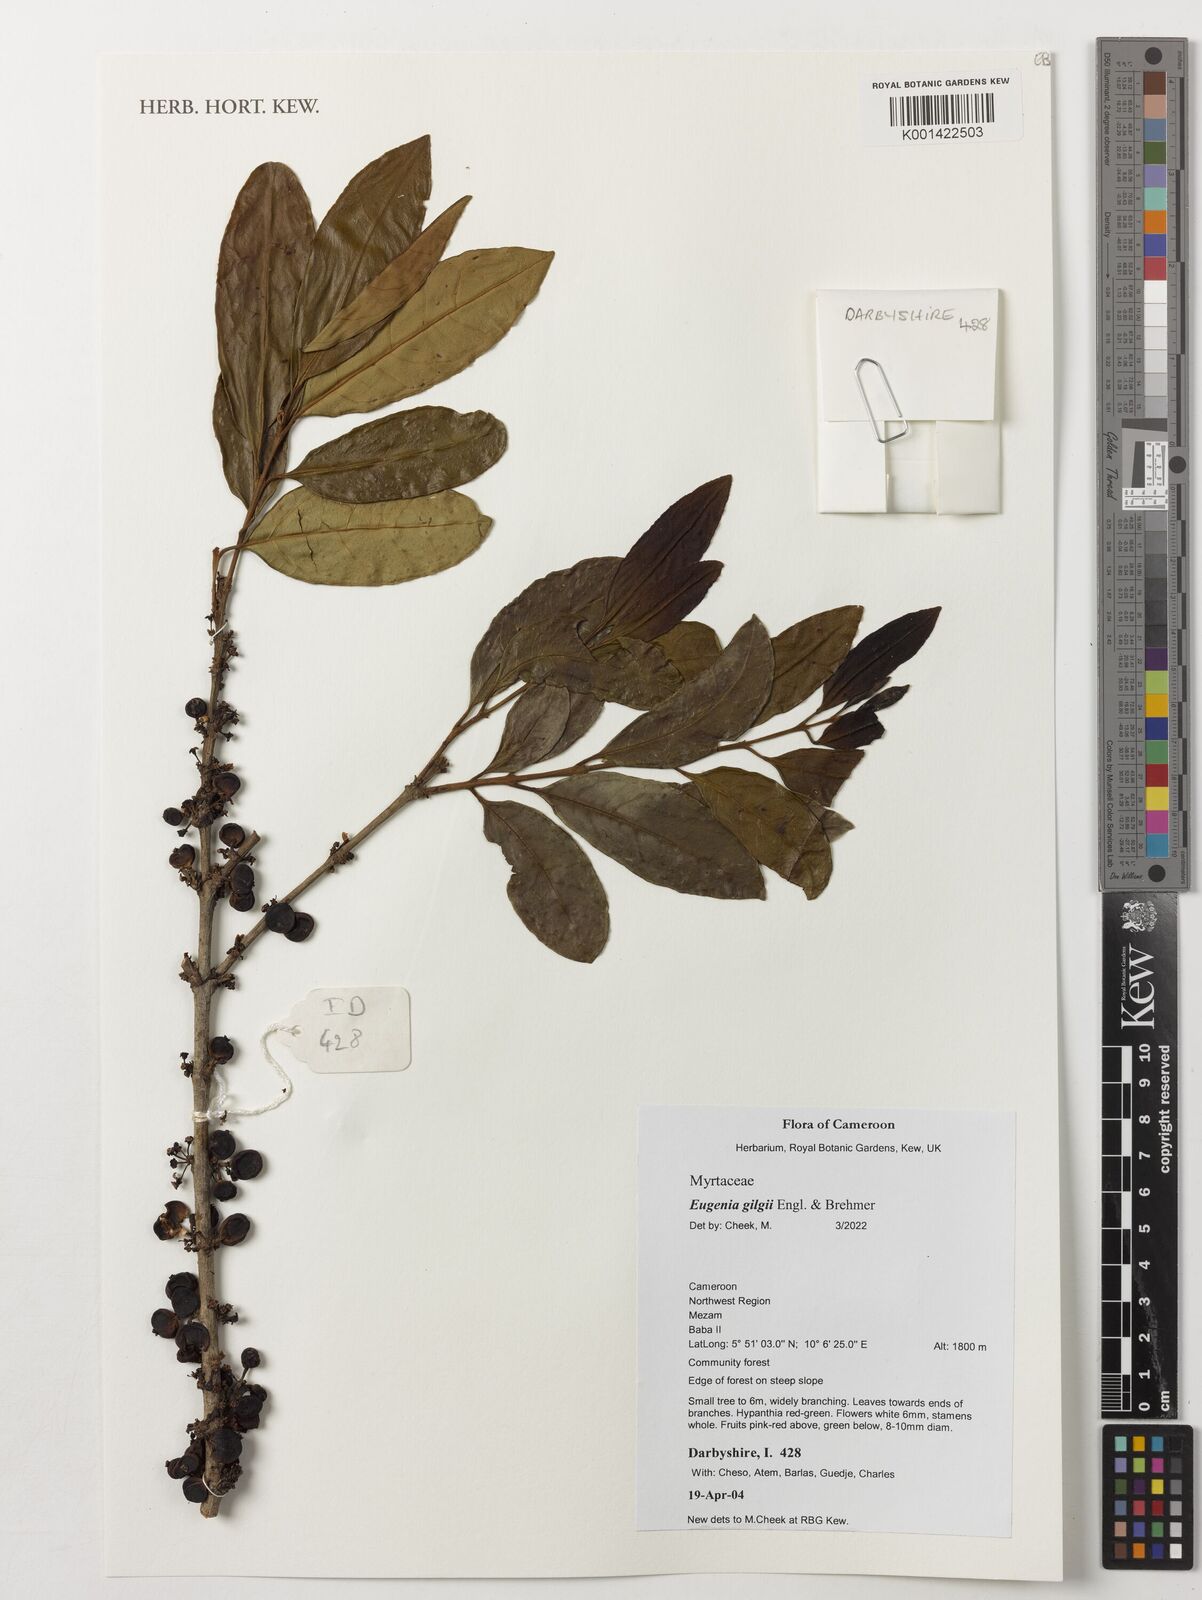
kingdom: Plantae
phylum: Tracheophyta
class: Magnoliopsida
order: Myrtales
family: Myrtaceae
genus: Eugenia
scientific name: Eugenia gilgii
